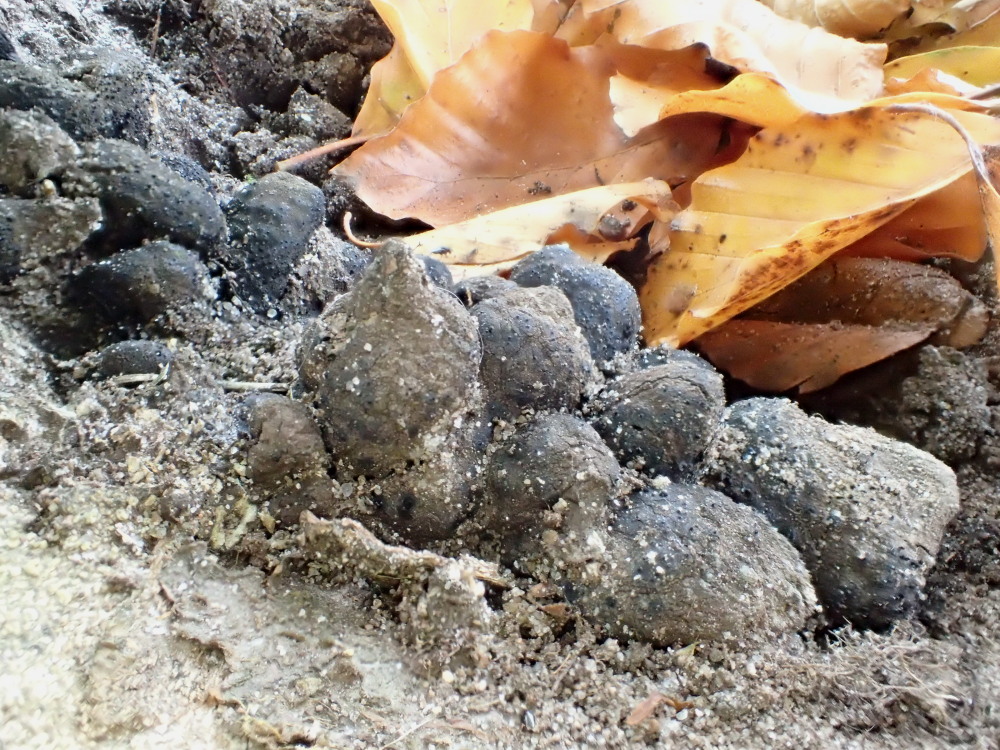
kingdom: Fungi
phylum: Ascomycota
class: Sordariomycetes
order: Xylariales
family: Xylariaceae
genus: Xylaria
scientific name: Xylaria polymorpha
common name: kølle-stødsvamp
